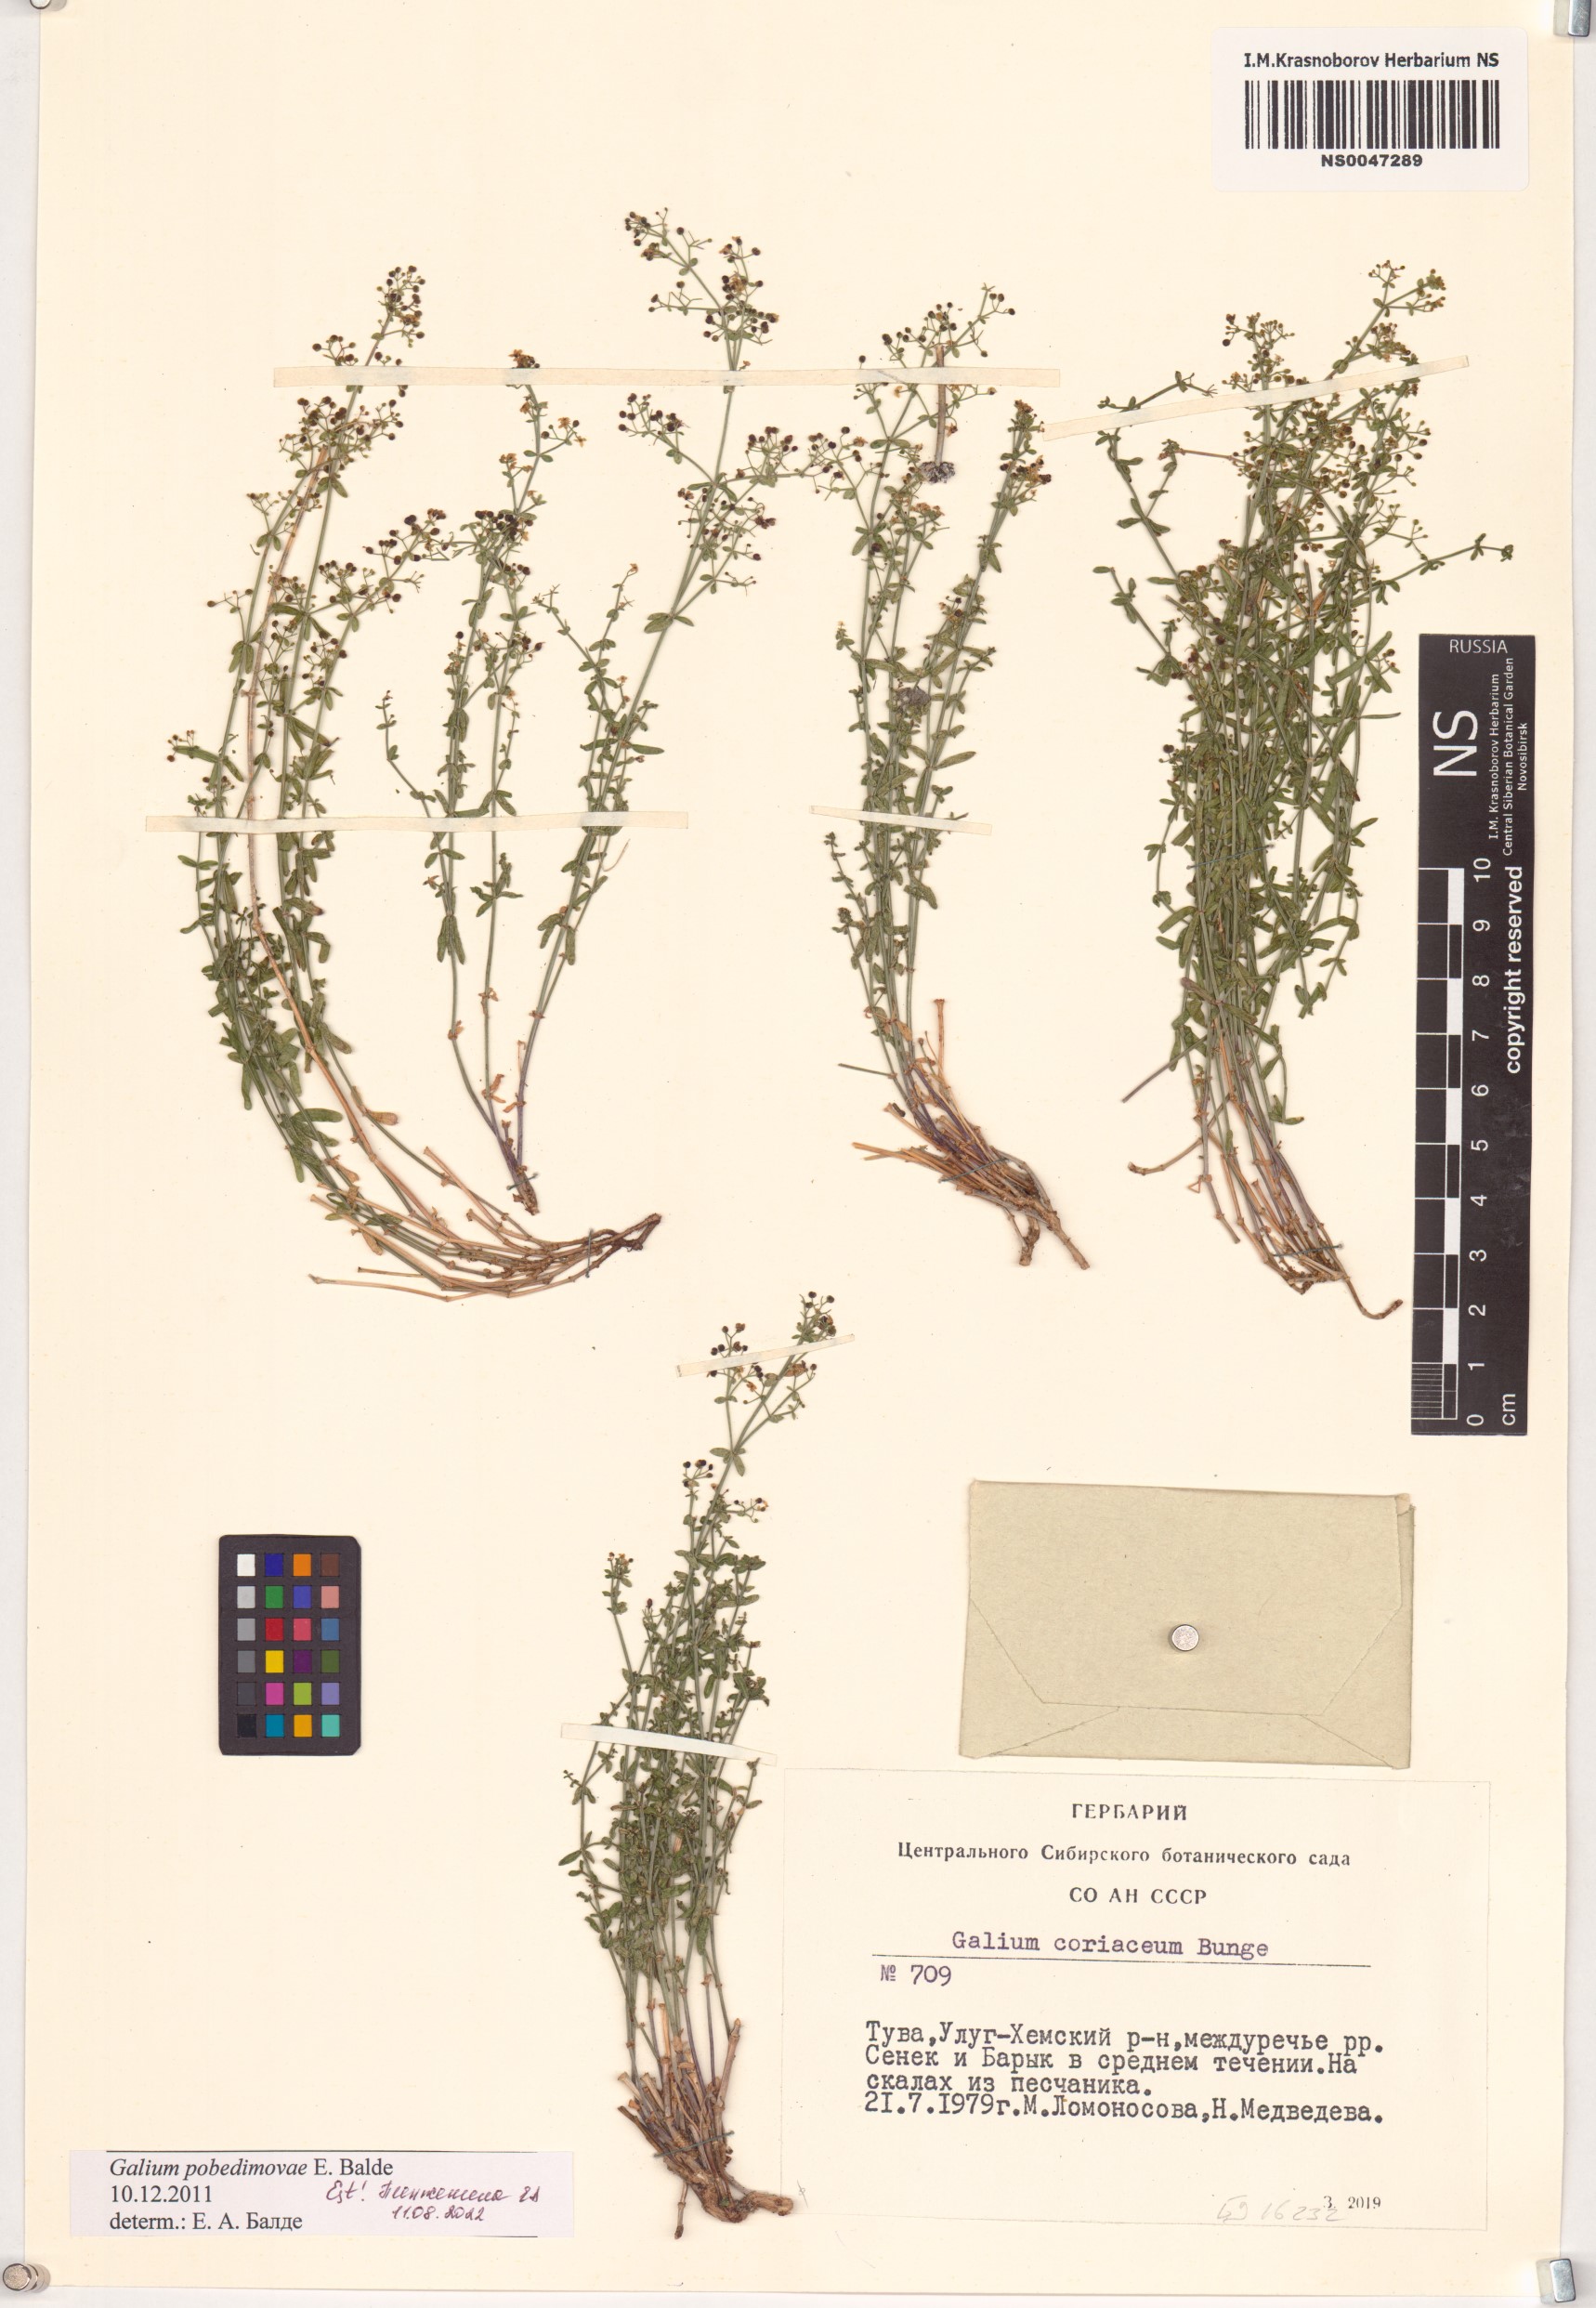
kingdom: Plantae
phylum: Tracheophyta
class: Magnoliopsida
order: Gentianales
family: Rubiaceae
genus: Galium
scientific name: Galium pobedimovae
